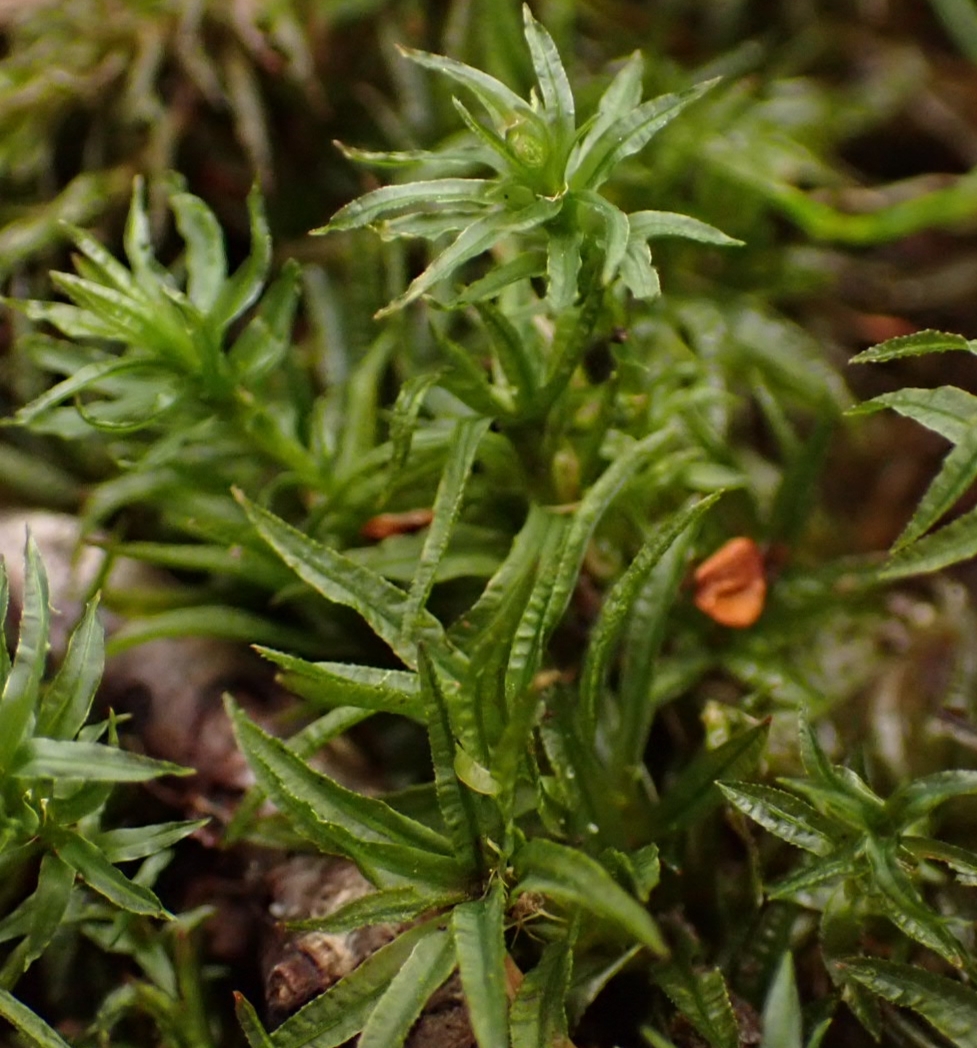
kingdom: Plantae
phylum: Bryophyta
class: Polytrichopsida
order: Polytrichales
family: Polytrichaceae
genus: Atrichum
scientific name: Atrichum undulatum
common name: Bølget katrinemos
